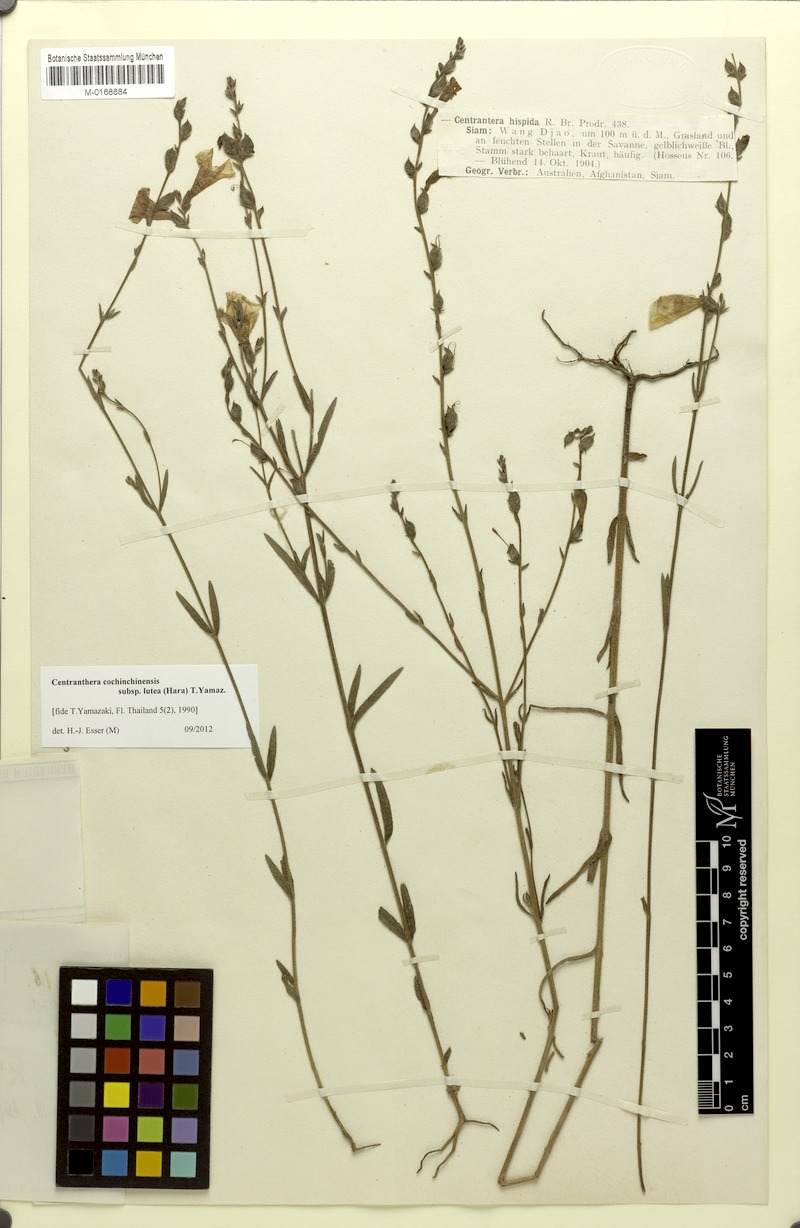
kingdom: Plantae
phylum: Tracheophyta
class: Magnoliopsida
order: Lamiales
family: Orobanchaceae
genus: Centranthera
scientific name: Centranthera cochinchinensis
